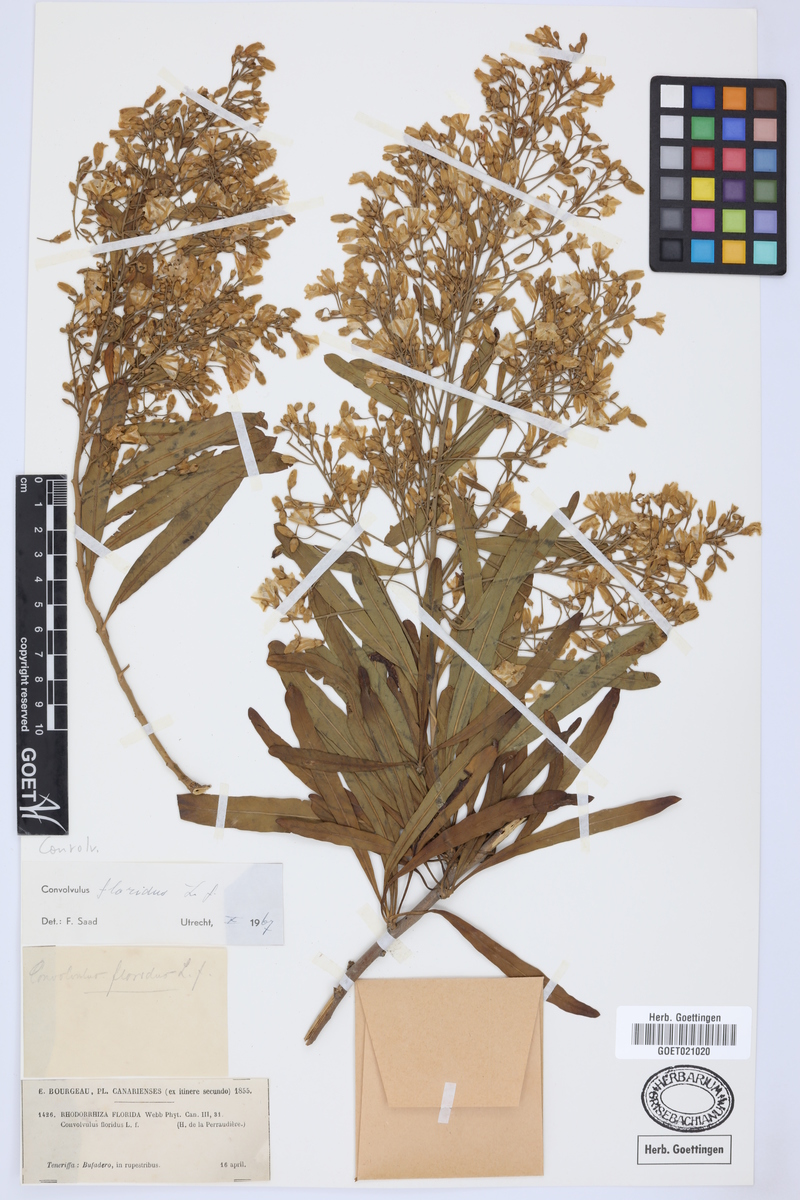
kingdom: Plantae
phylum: Tracheophyta
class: Magnoliopsida
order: Solanales
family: Convolvulaceae
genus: Convolvulus
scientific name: Convolvulus floridus
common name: Guadil
